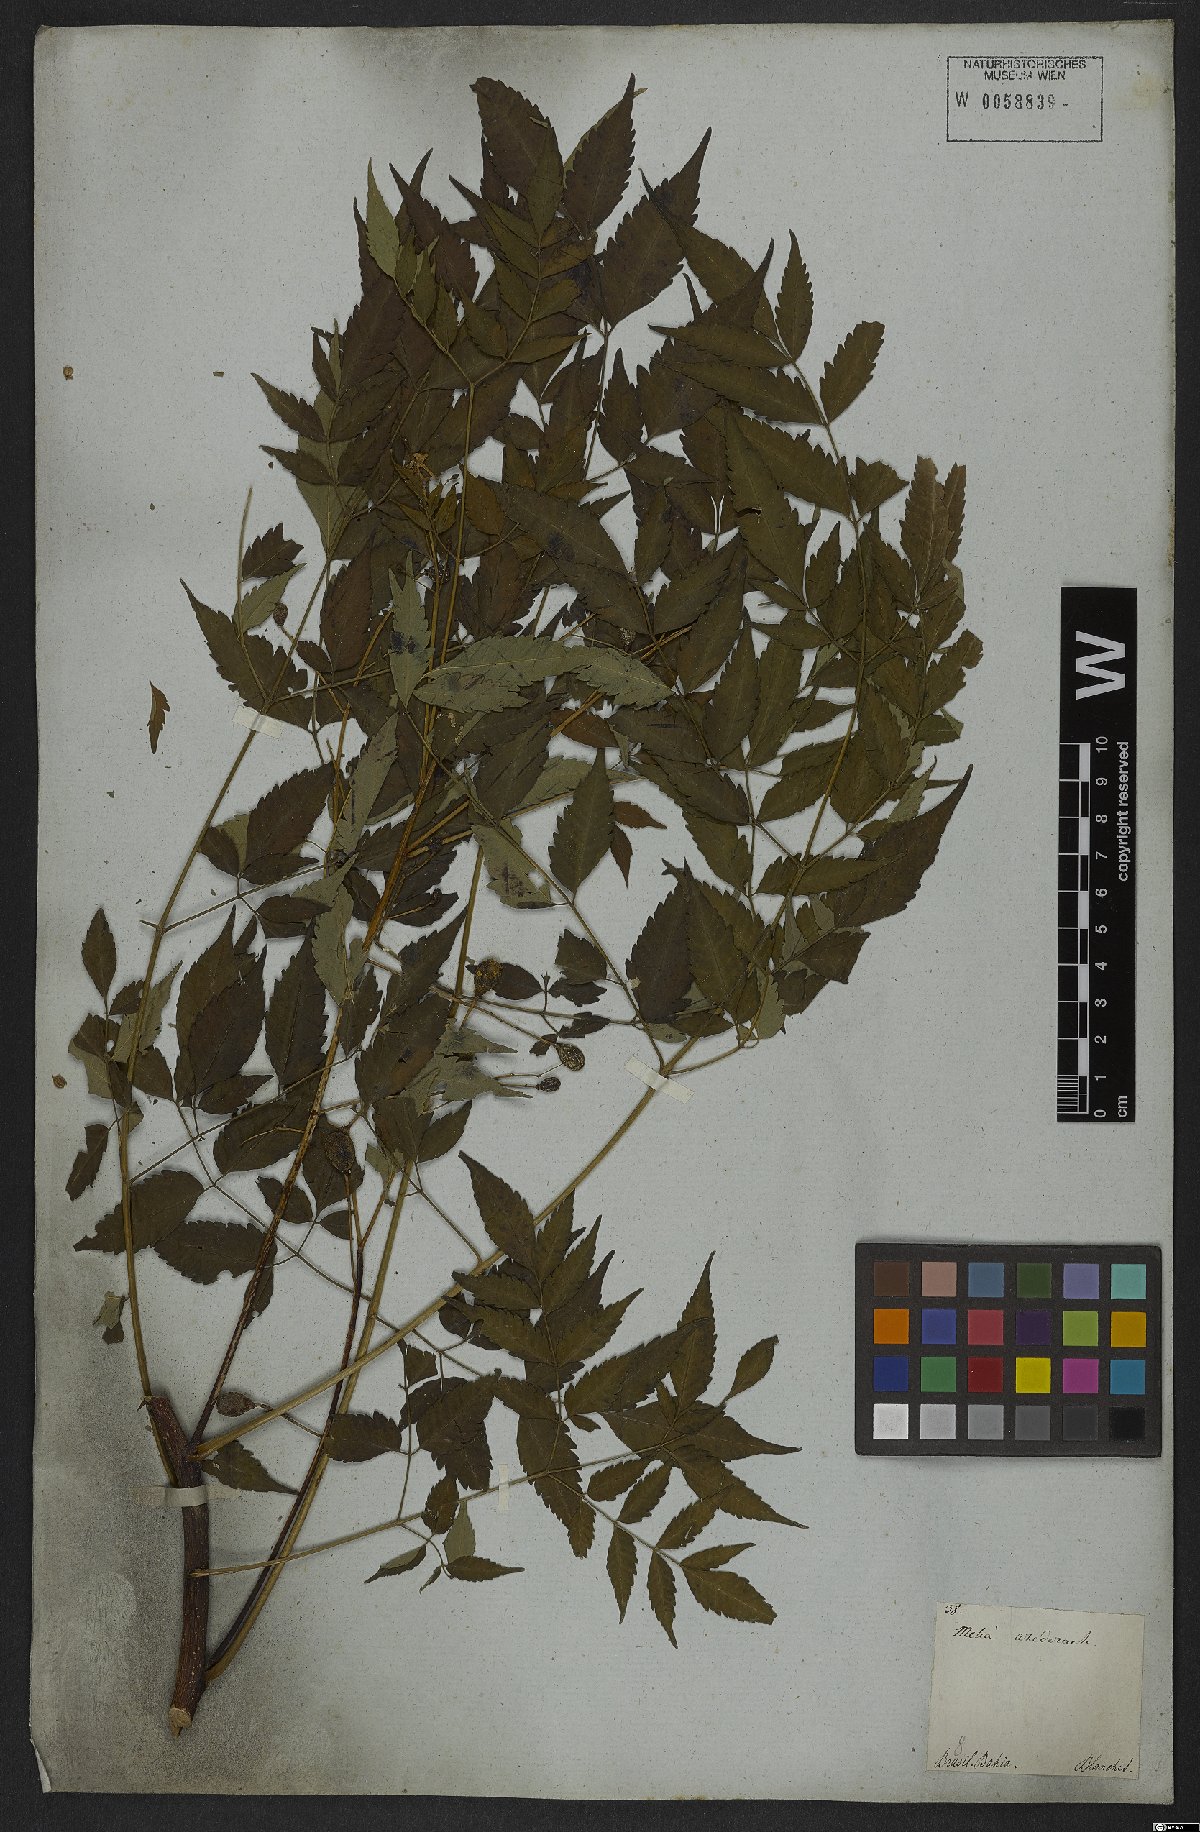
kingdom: Plantae
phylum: Tracheophyta
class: Magnoliopsida
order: Sapindales
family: Meliaceae
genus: Melia
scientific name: Melia azedarach
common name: Chinaberrytree
